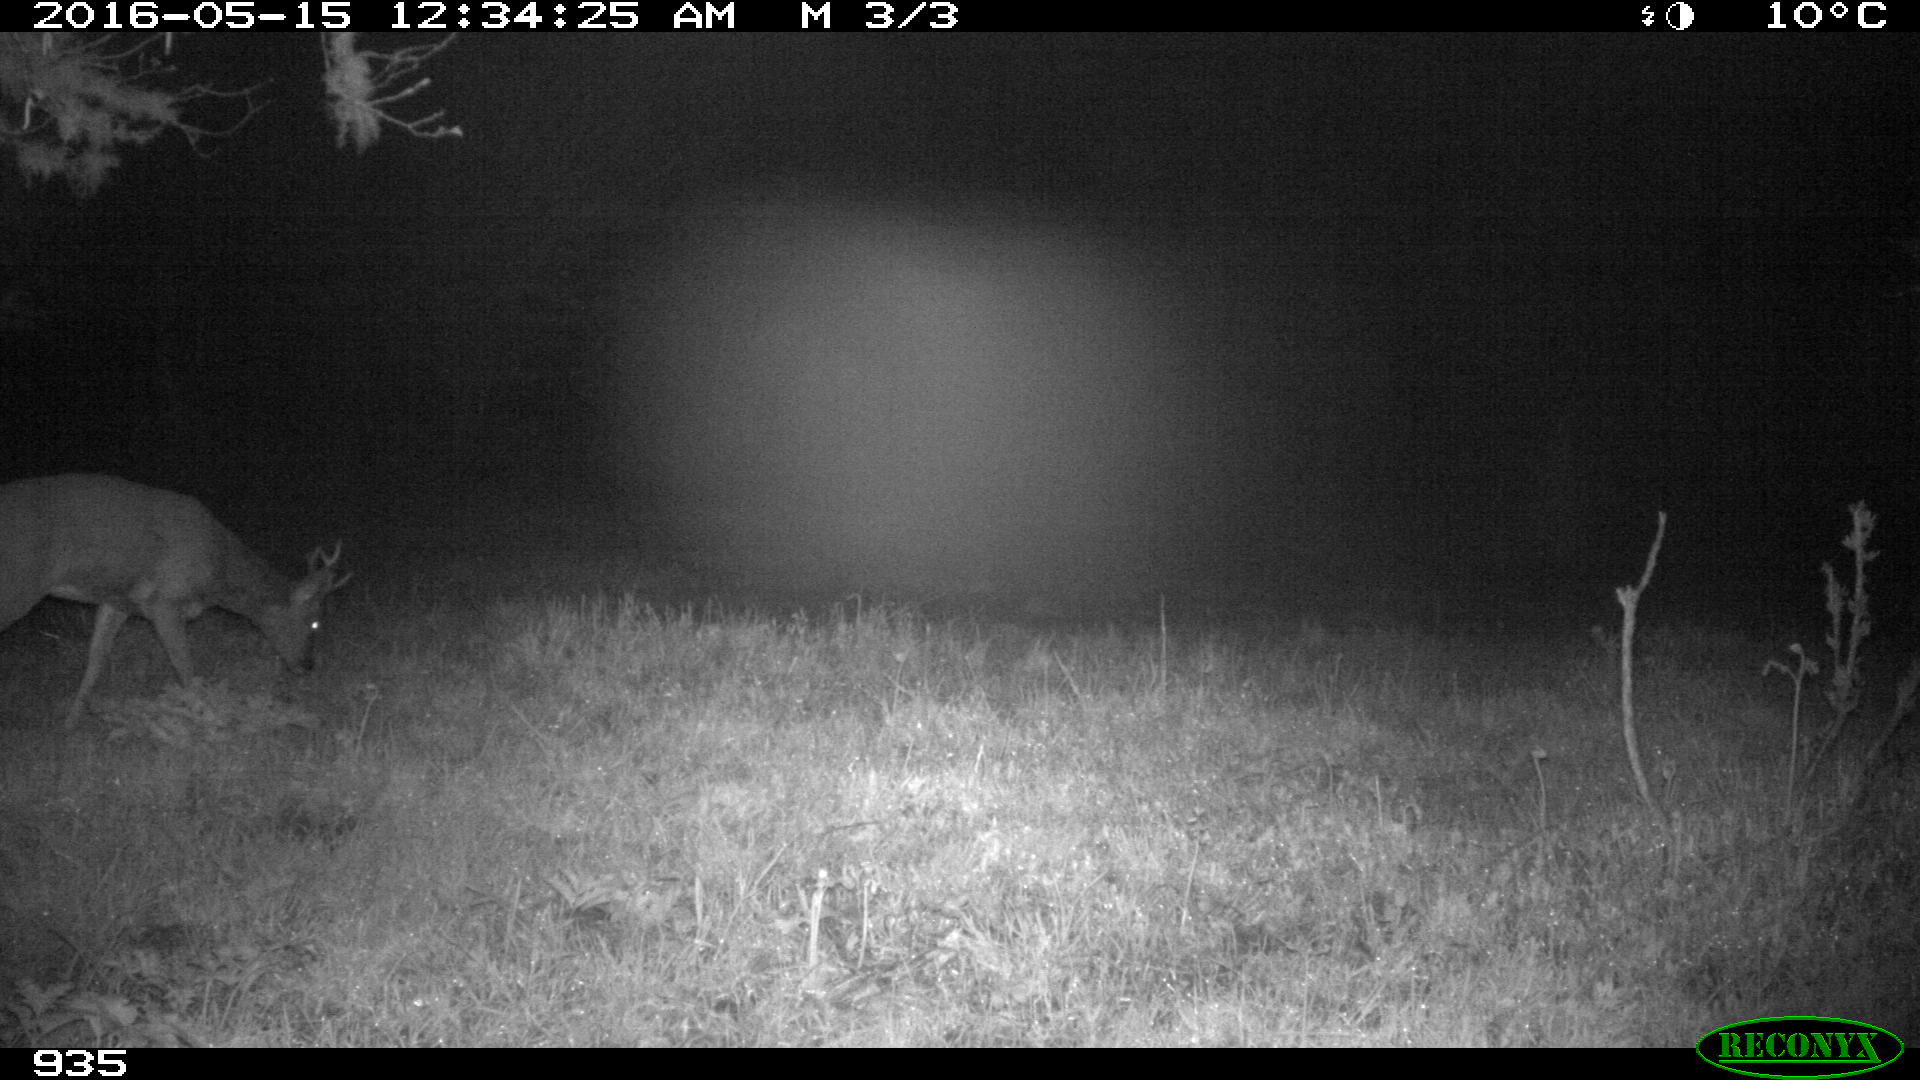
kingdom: Animalia
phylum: Chordata
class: Mammalia
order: Artiodactyla
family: Cervidae
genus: Capreolus
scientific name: Capreolus capreolus
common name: Western roe deer
